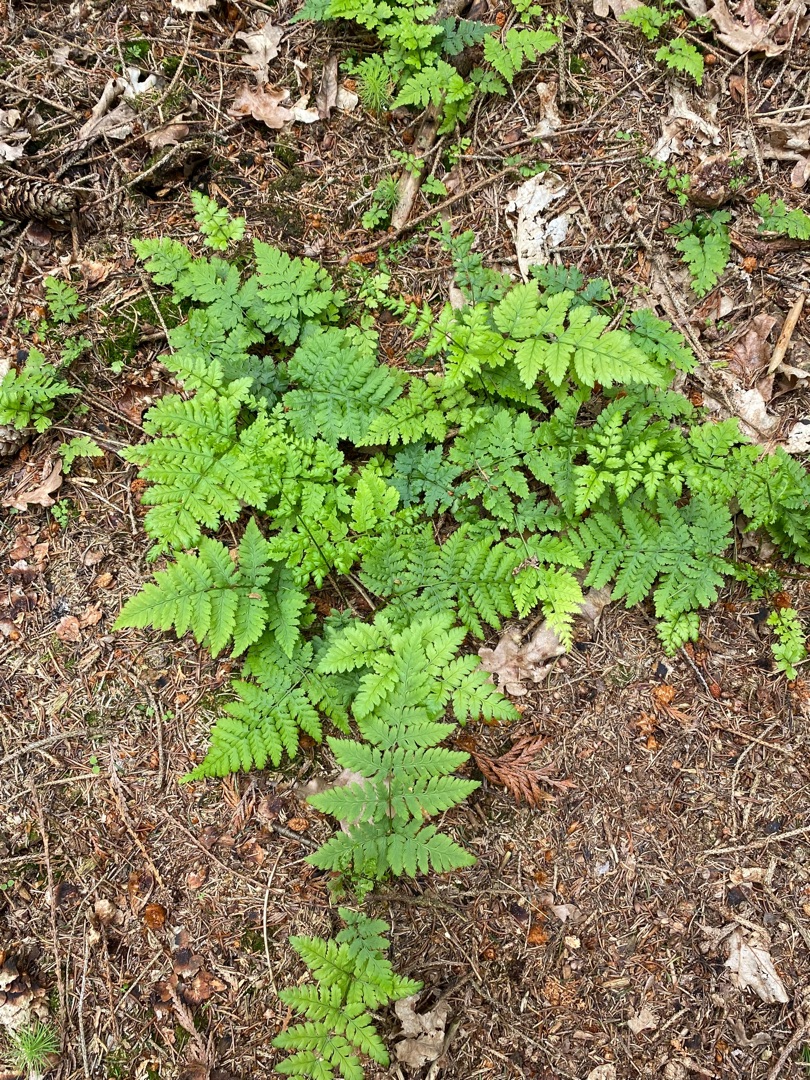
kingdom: Plantae
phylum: Tracheophyta
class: Polypodiopsida
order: Polypodiales
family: Dryopteridaceae
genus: Dryopteris
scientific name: Dryopteris carthusiana
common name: Smalbladet mangeløv
